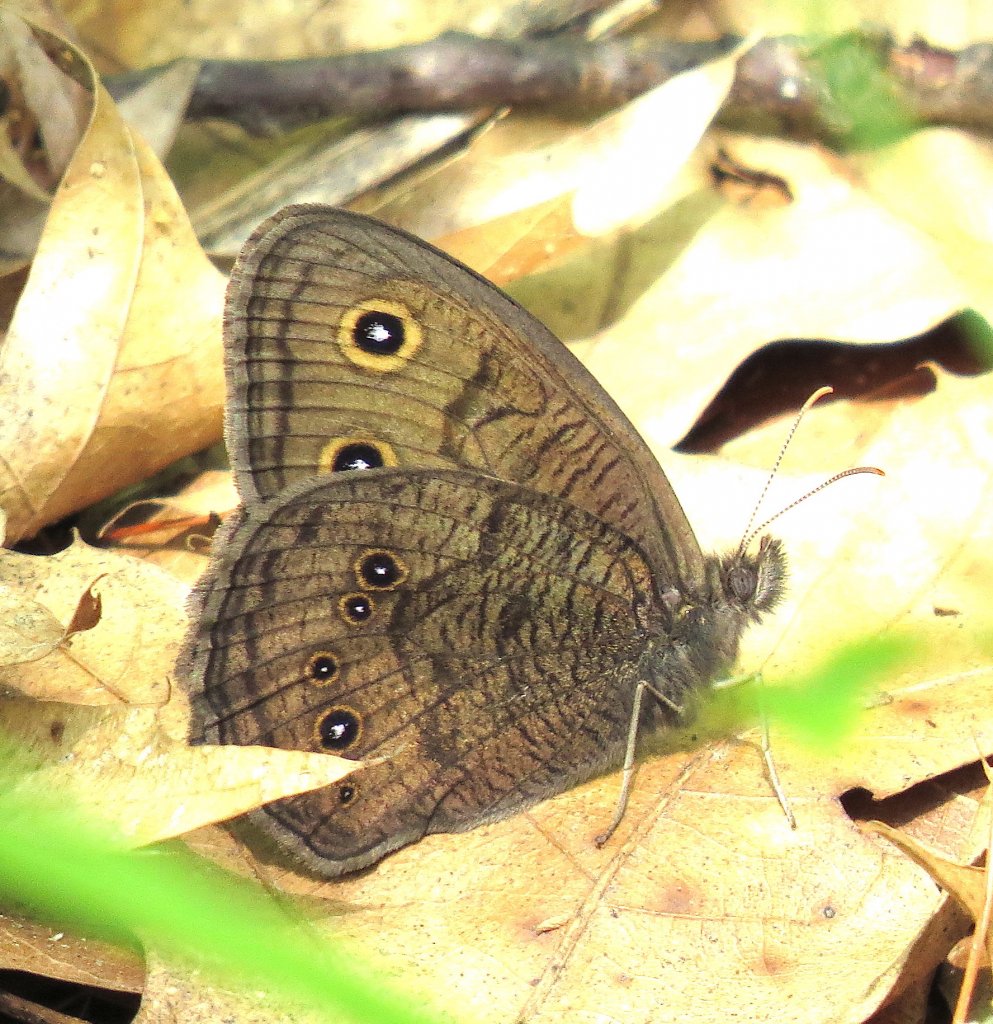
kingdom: Animalia
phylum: Arthropoda
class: Insecta
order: Lepidoptera
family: Nymphalidae
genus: Cercyonis
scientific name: Cercyonis pegala
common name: Common Wood-Nymph
